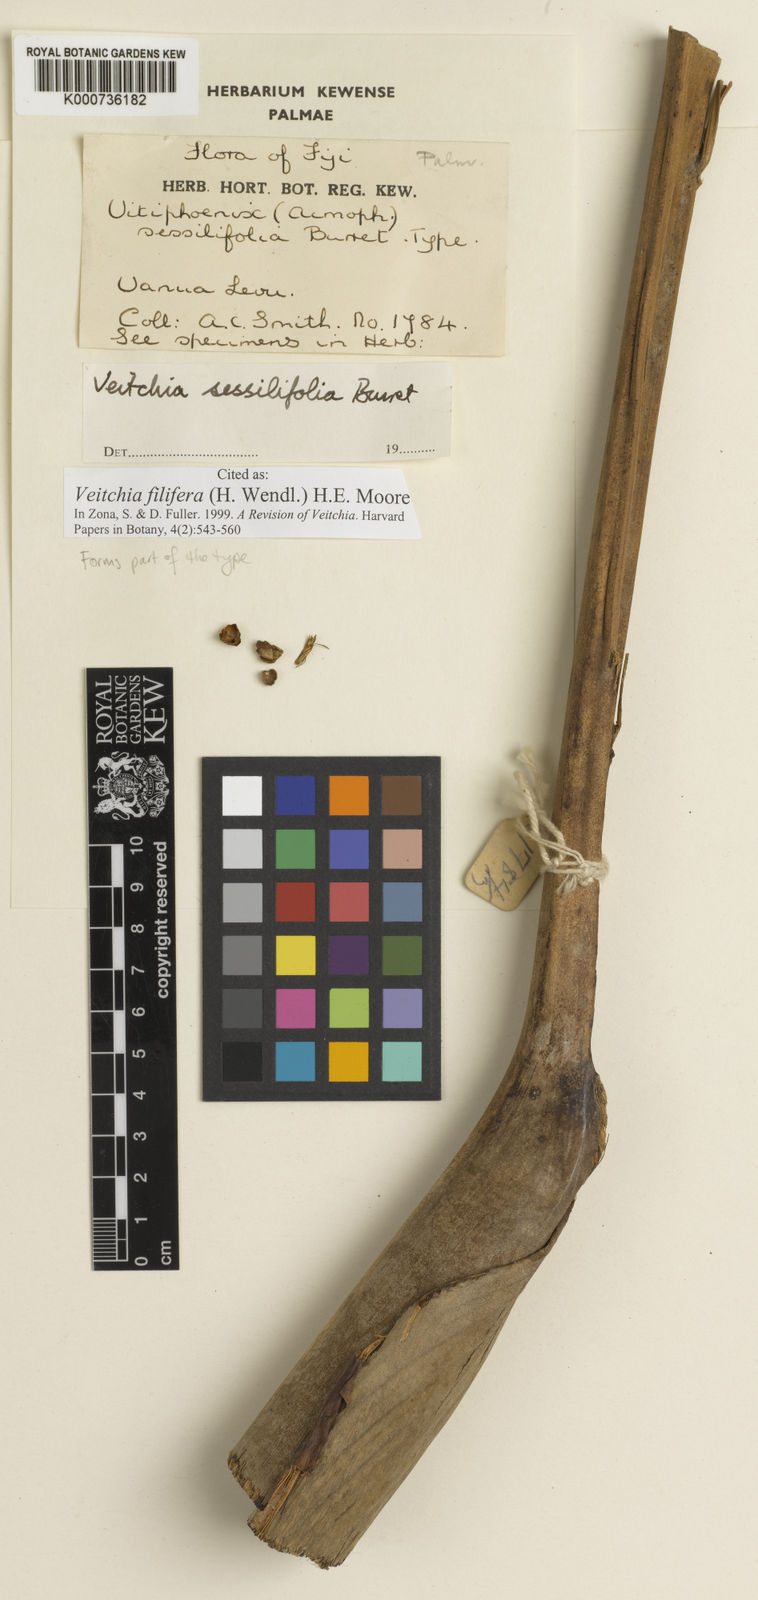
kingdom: Plantae
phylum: Tracheophyta
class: Liliopsida
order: Arecales
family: Arecaceae
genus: Veitchia
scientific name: Veitchia filifera
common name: Cagicake
